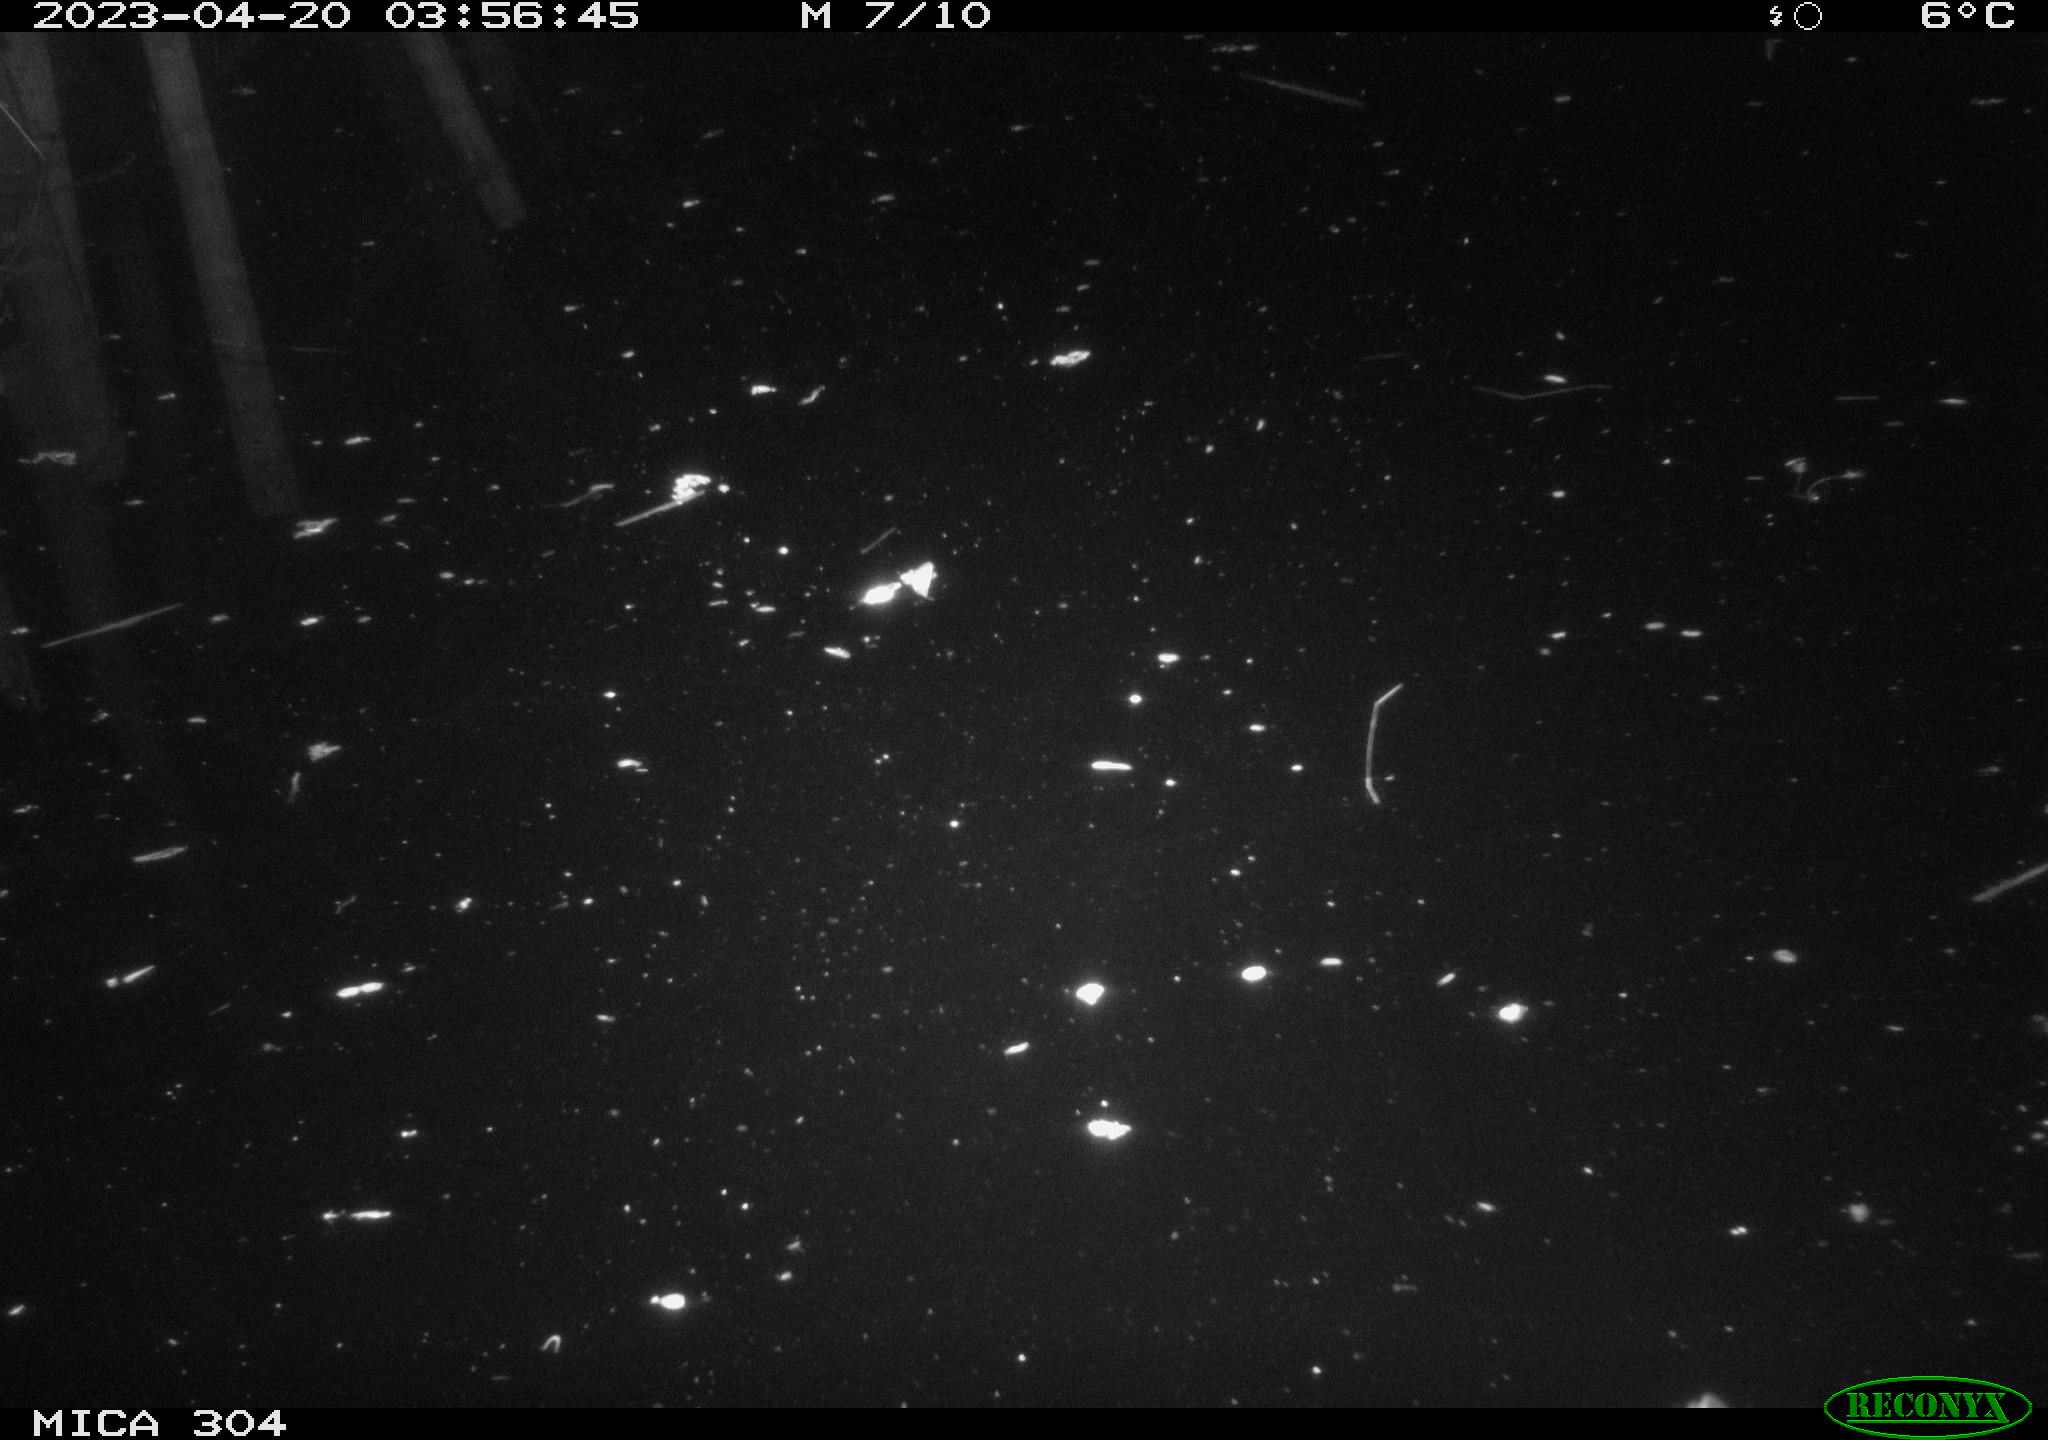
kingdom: Animalia
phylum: Chordata
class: Aves
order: Anseriformes
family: Anatidae
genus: Anas
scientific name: Anas
